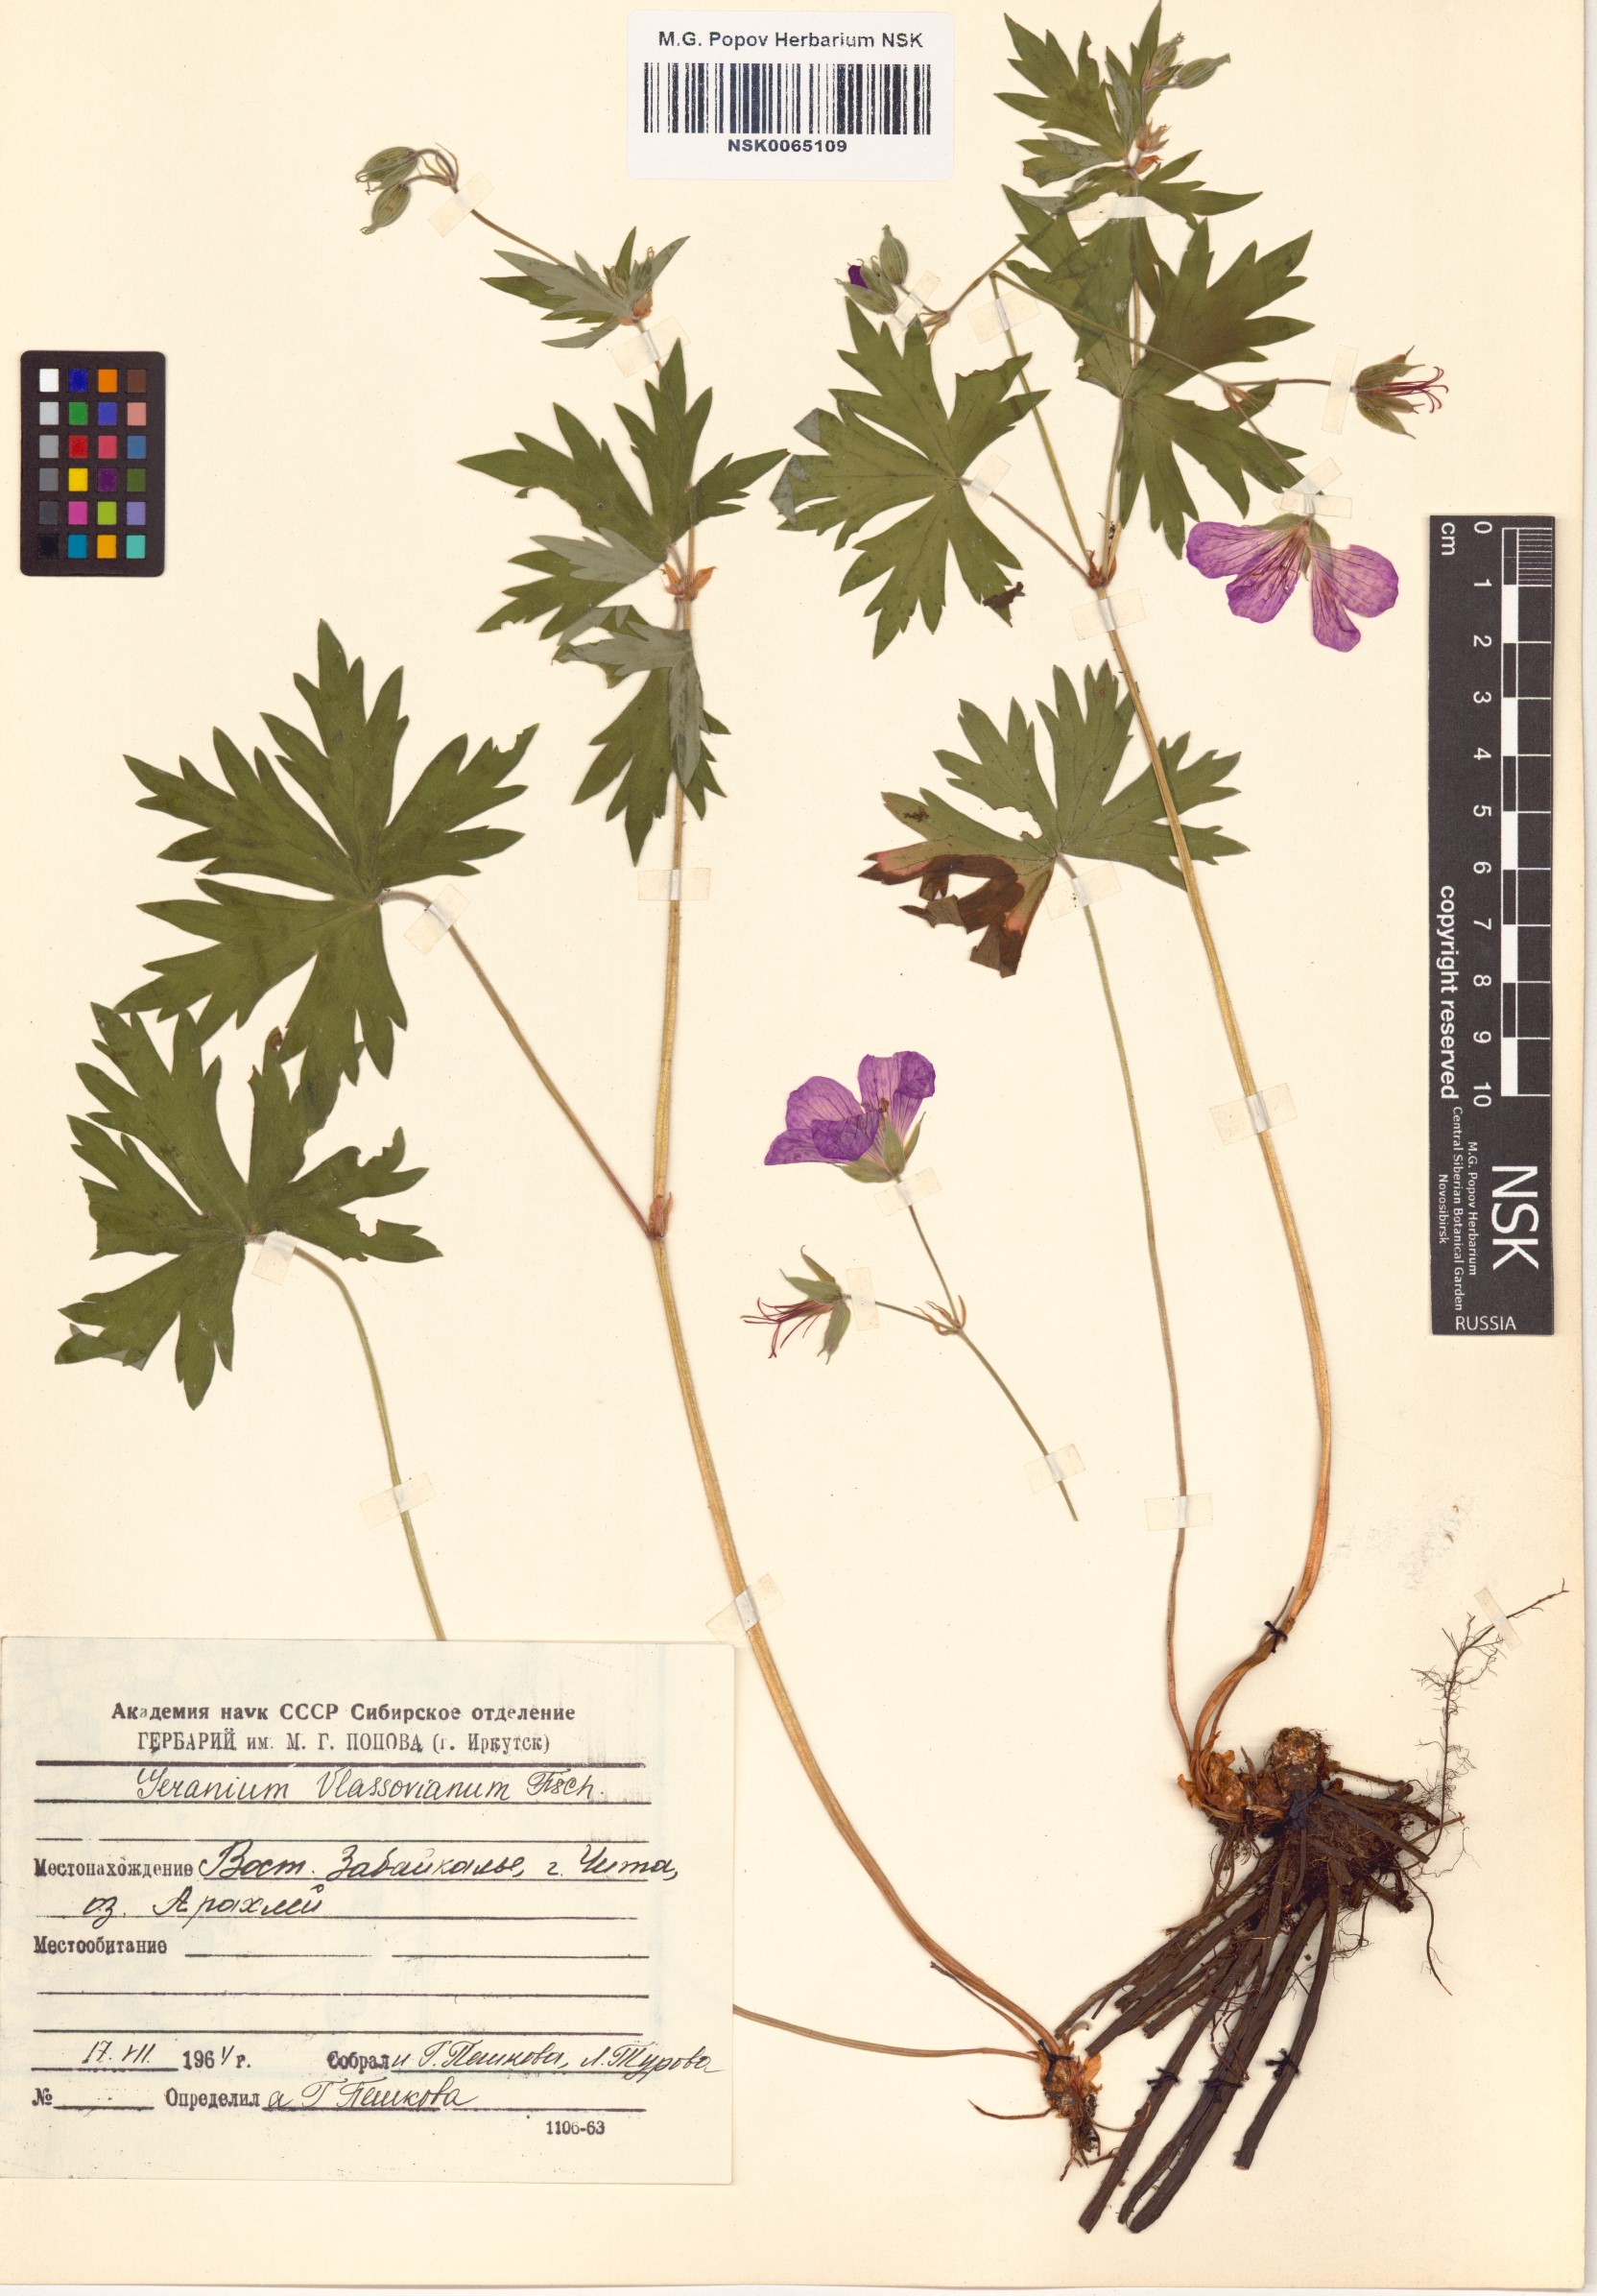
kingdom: Plantae
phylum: Tracheophyta
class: Magnoliopsida
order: Geraniales
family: Geraniaceae
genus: Geranium
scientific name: Geranium wlassovianum
